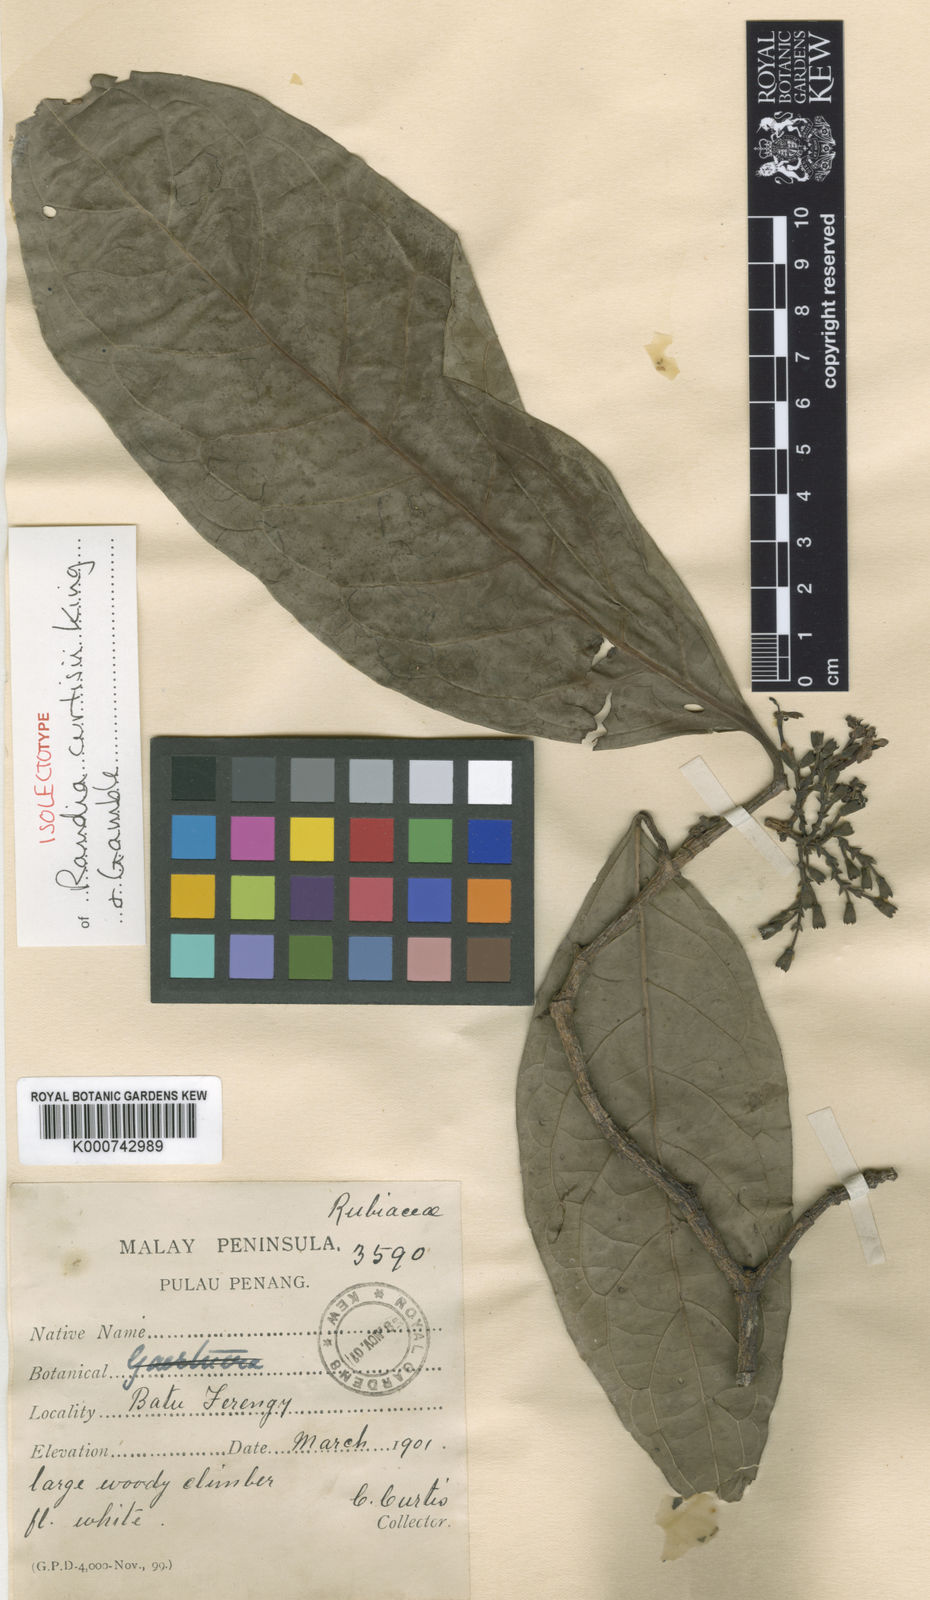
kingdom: Plantae
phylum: Tracheophyta
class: Magnoliopsida
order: Gentianales
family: Rubiaceae
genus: Oxyceros
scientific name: Oxyceros bispinosus
